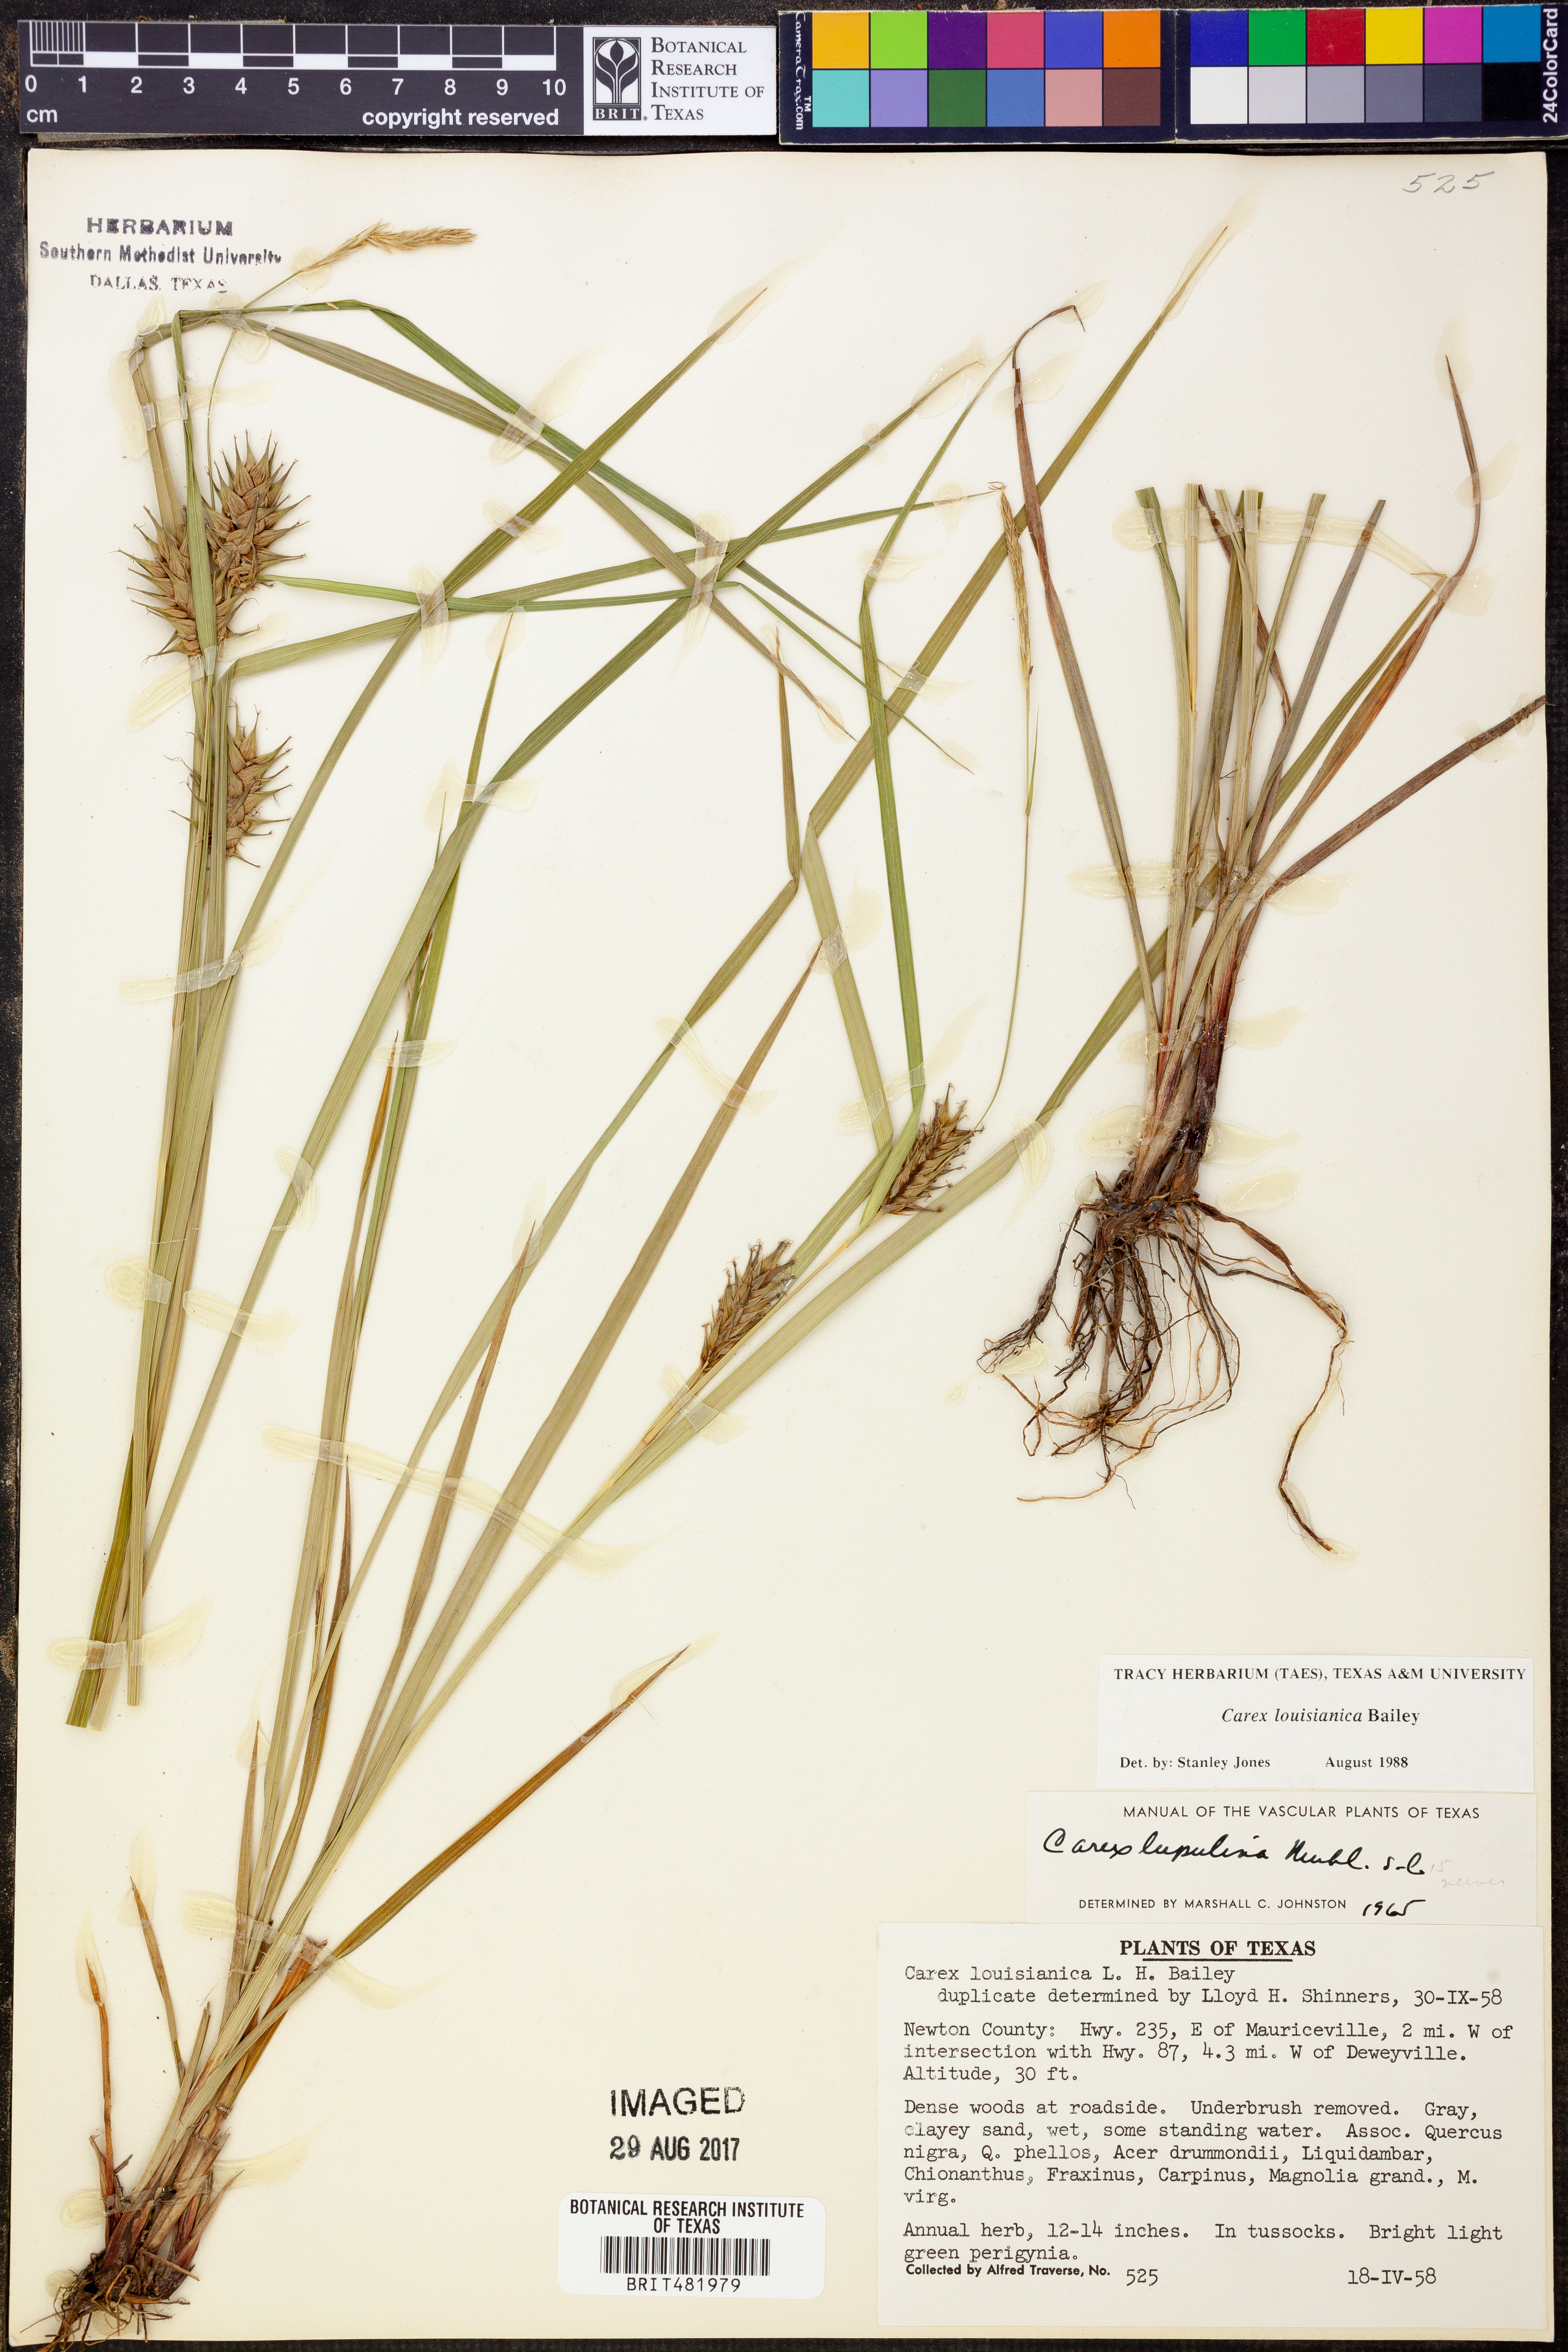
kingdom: Plantae
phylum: Tracheophyta
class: Liliopsida
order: Poales
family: Cyperaceae
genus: Carex
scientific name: Carex louisianica
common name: Louisiana sedge
